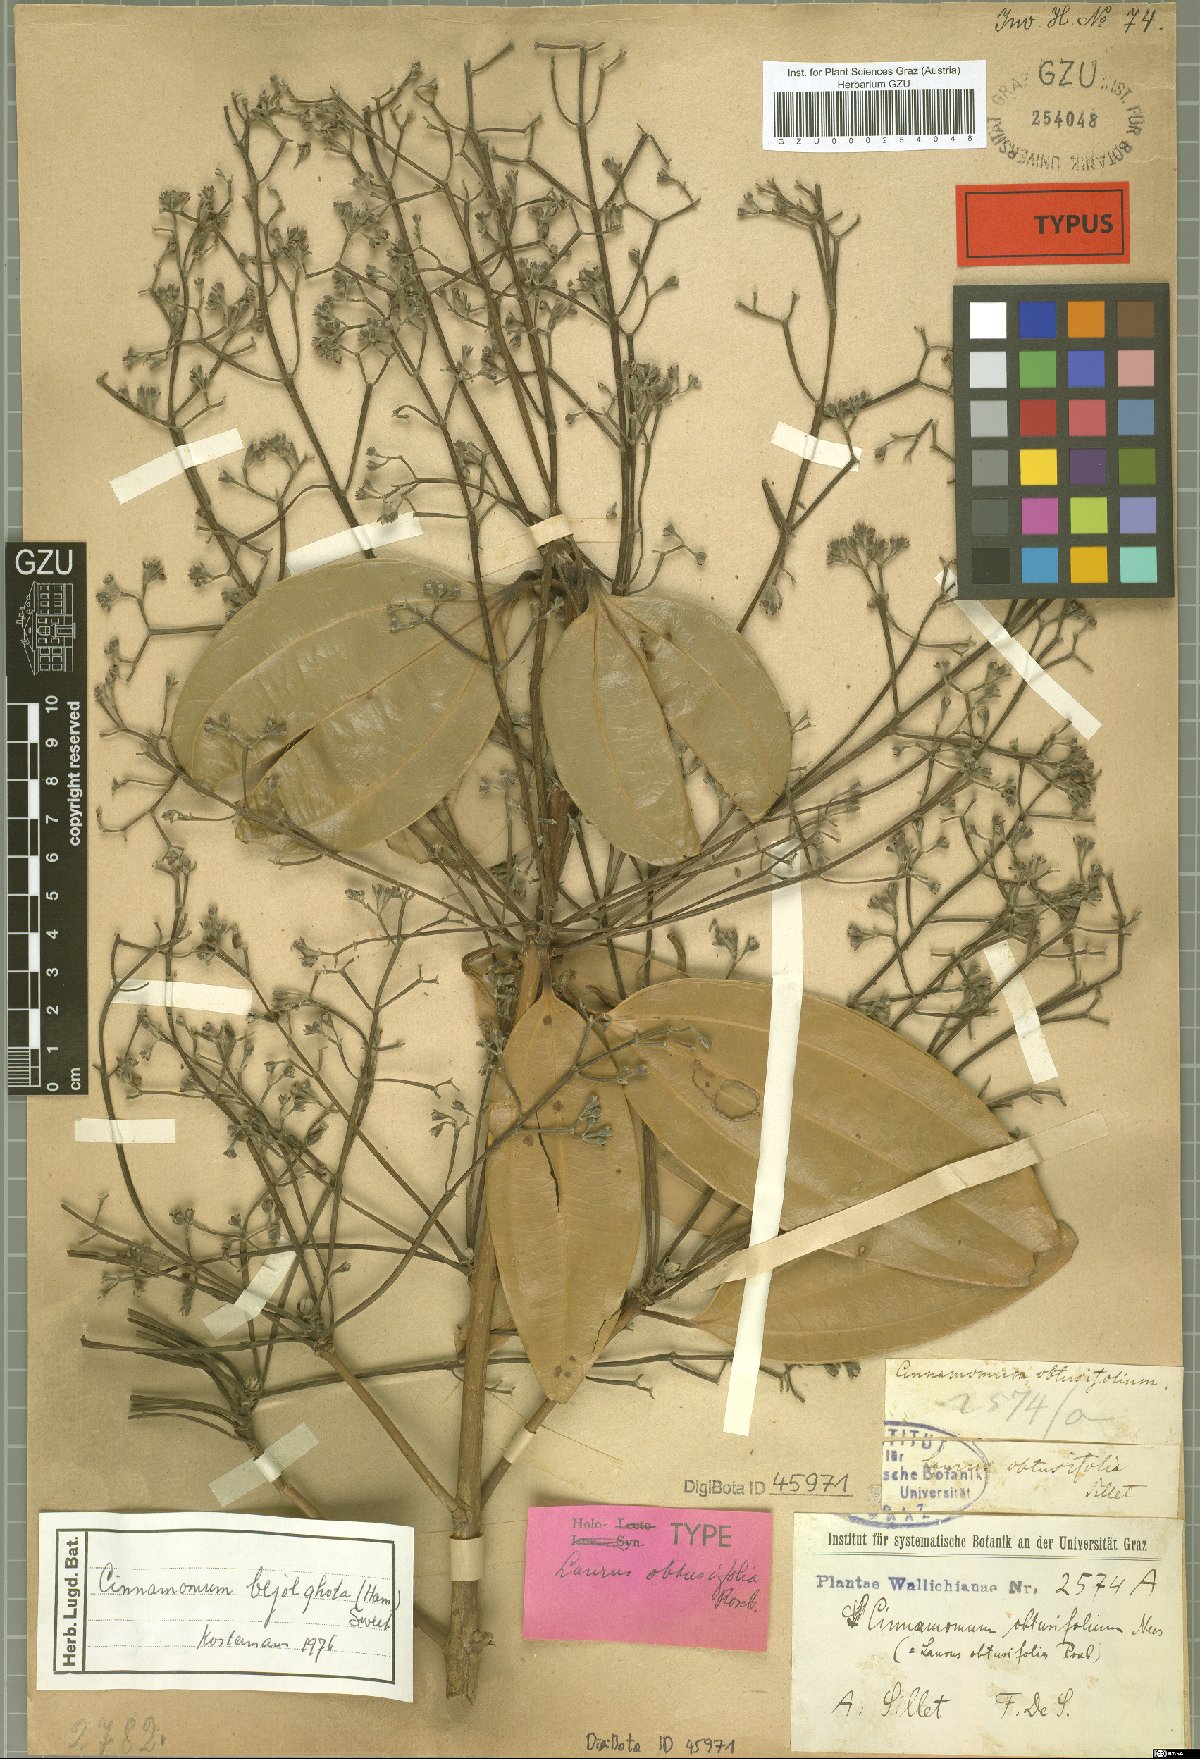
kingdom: Plantae
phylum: Tracheophyta
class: Magnoliopsida
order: Laurales
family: Lauraceae
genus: Cinnamomum
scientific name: Cinnamomum bejolghota
